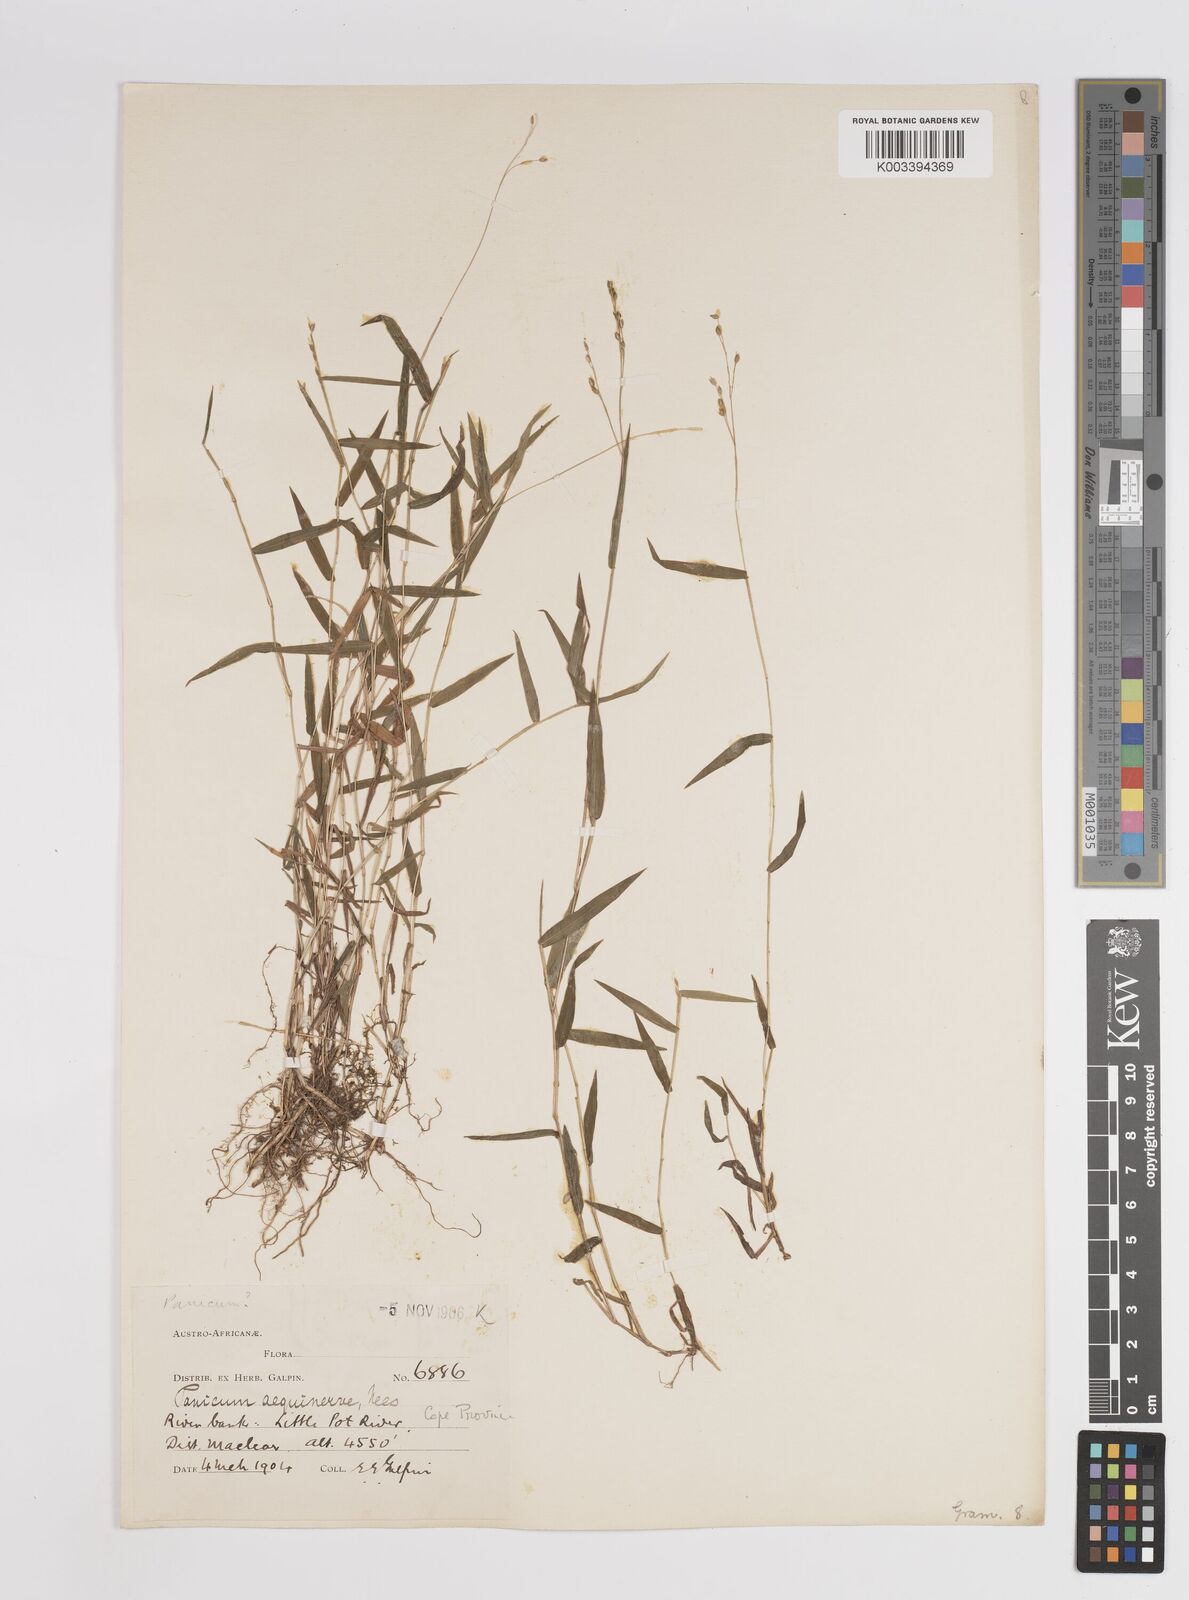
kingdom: Plantae
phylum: Tracheophyta
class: Liliopsida
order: Poales
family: Poaceae
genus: Panicum
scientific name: Panicum aequinerve
